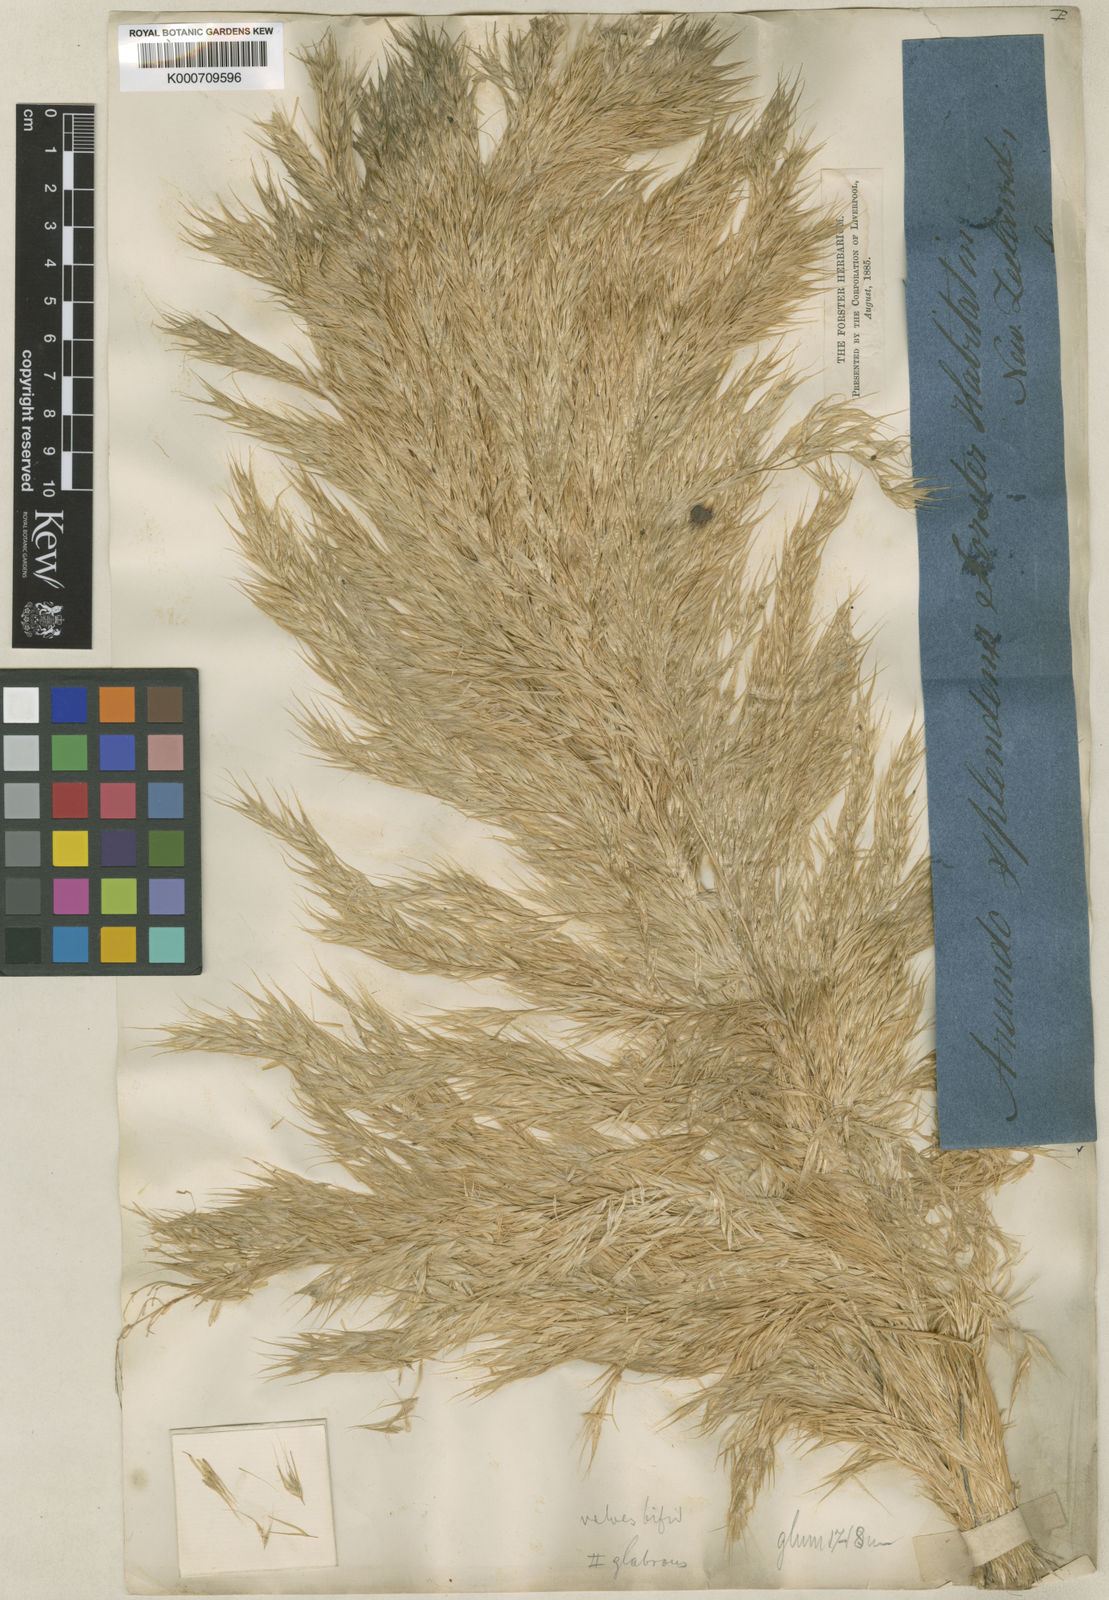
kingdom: Plantae
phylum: Tracheophyta
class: Liliopsida
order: Poales
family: Poaceae
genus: Austroderia
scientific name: Austroderia richardii
